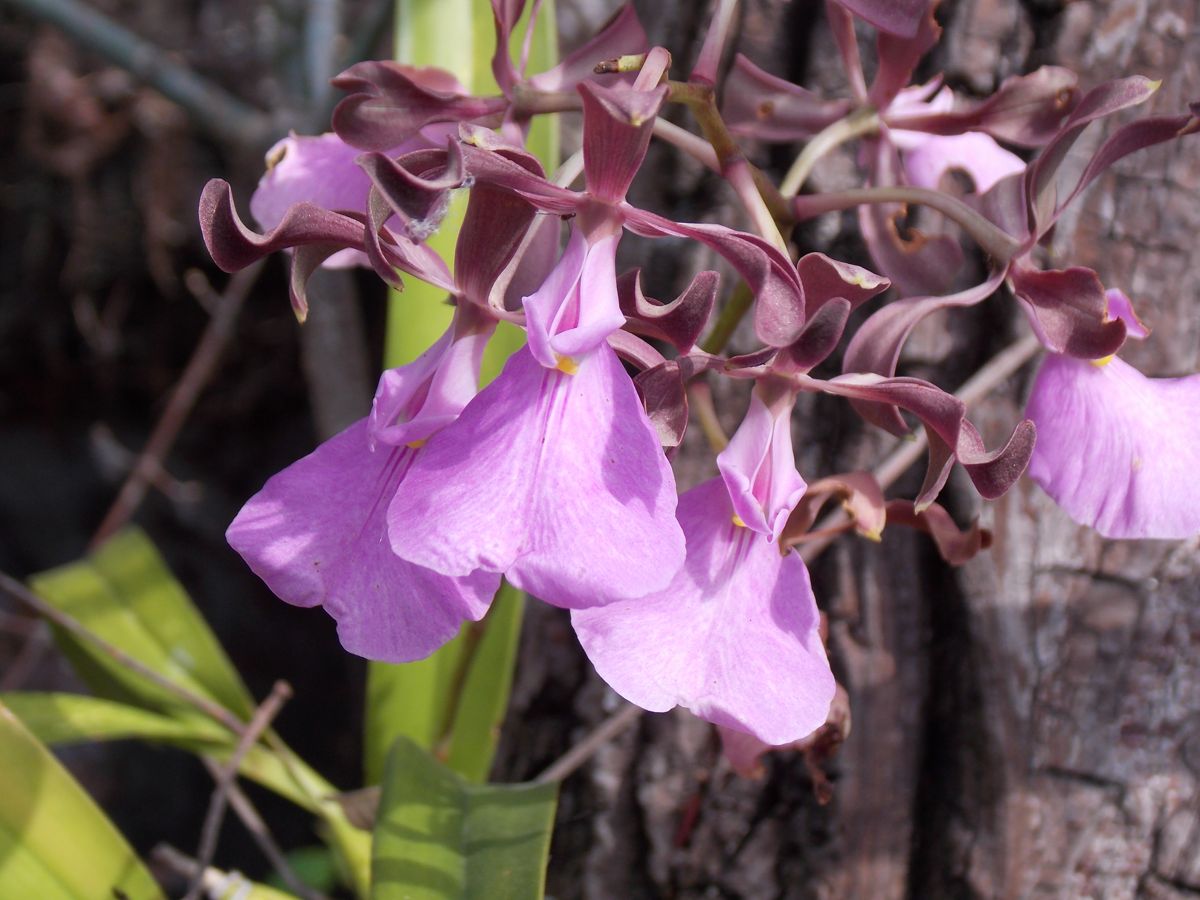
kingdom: Plantae
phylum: Tracheophyta
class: Liliopsida
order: Asparagales
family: Orchidaceae
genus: Encyclia
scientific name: Encyclia cordigera
